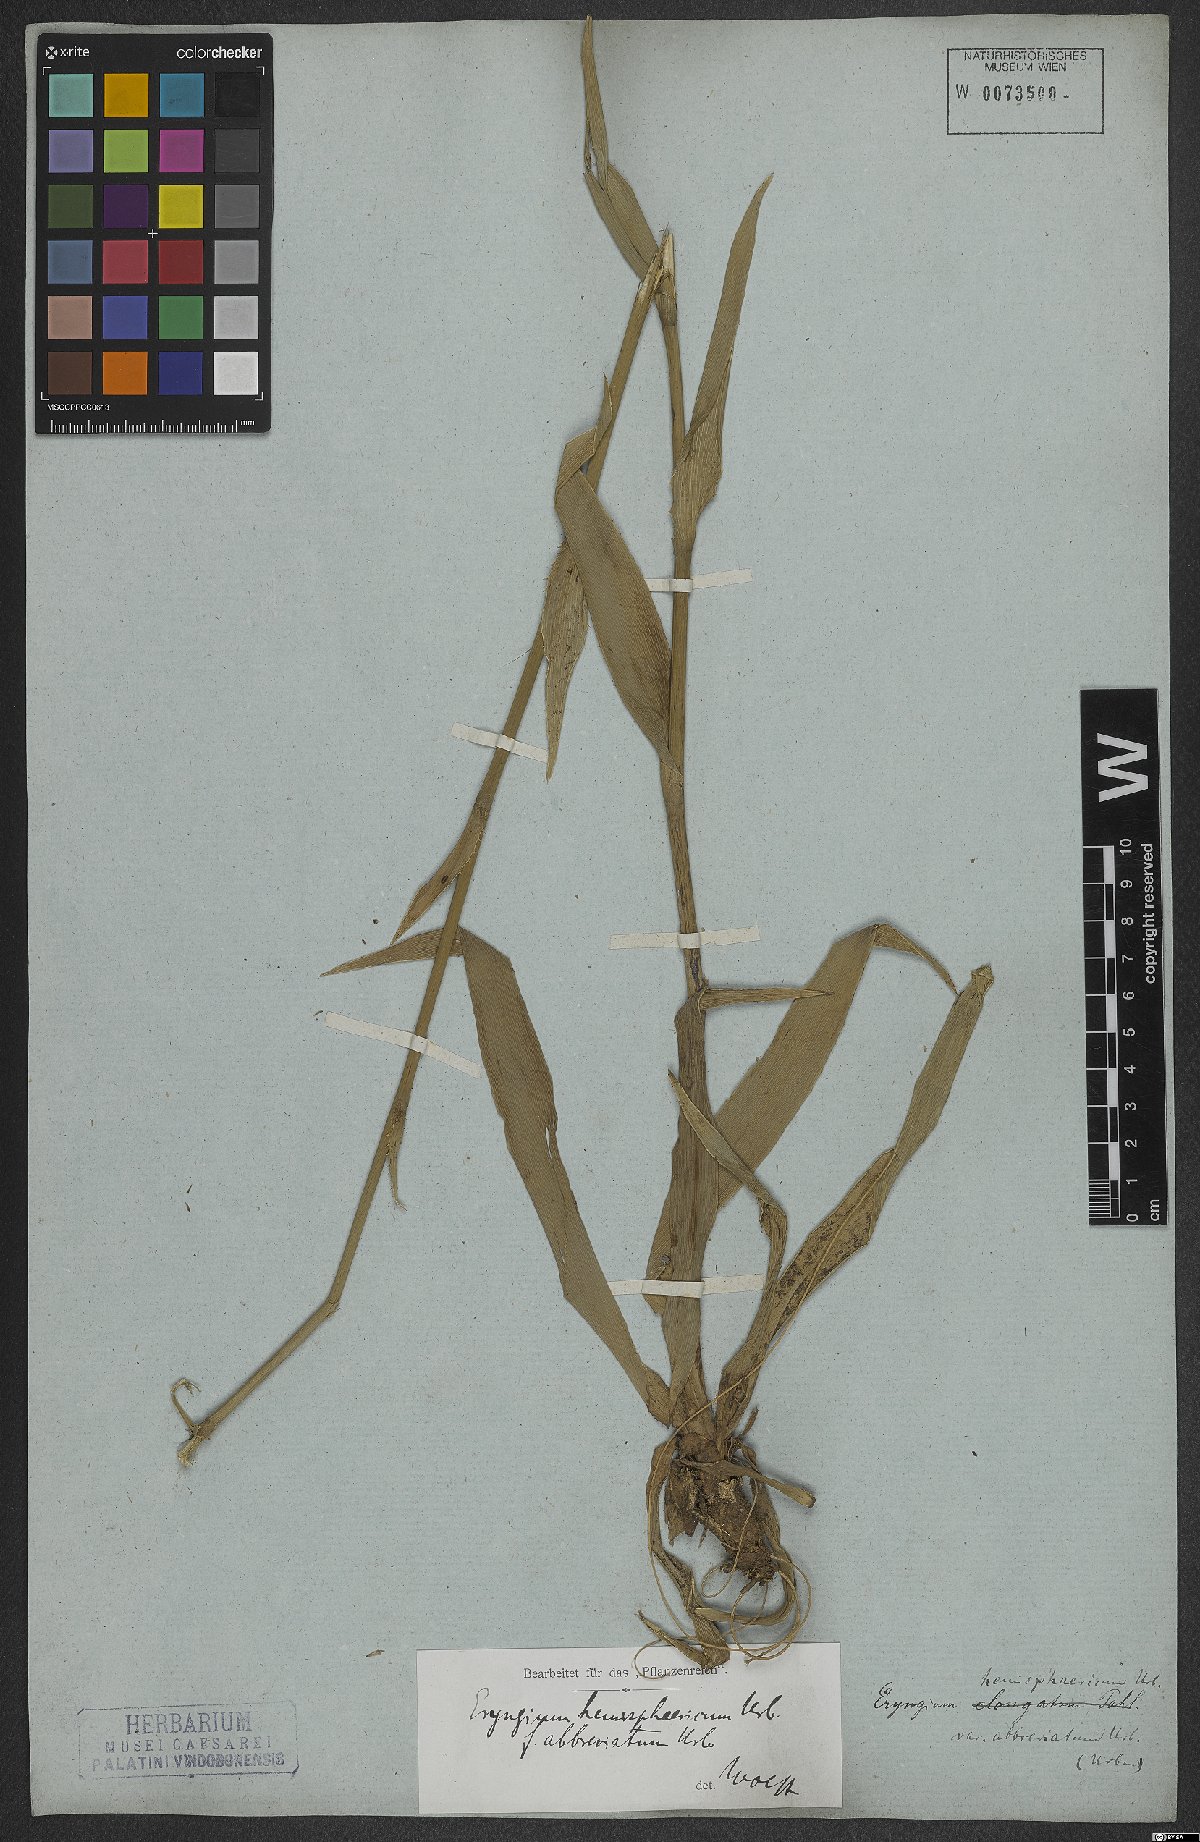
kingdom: Plantae
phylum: Tracheophyta
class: Magnoliopsida
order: Apiales
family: Apiaceae
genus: Eryngium
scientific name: Eryngium hemisphaericum
